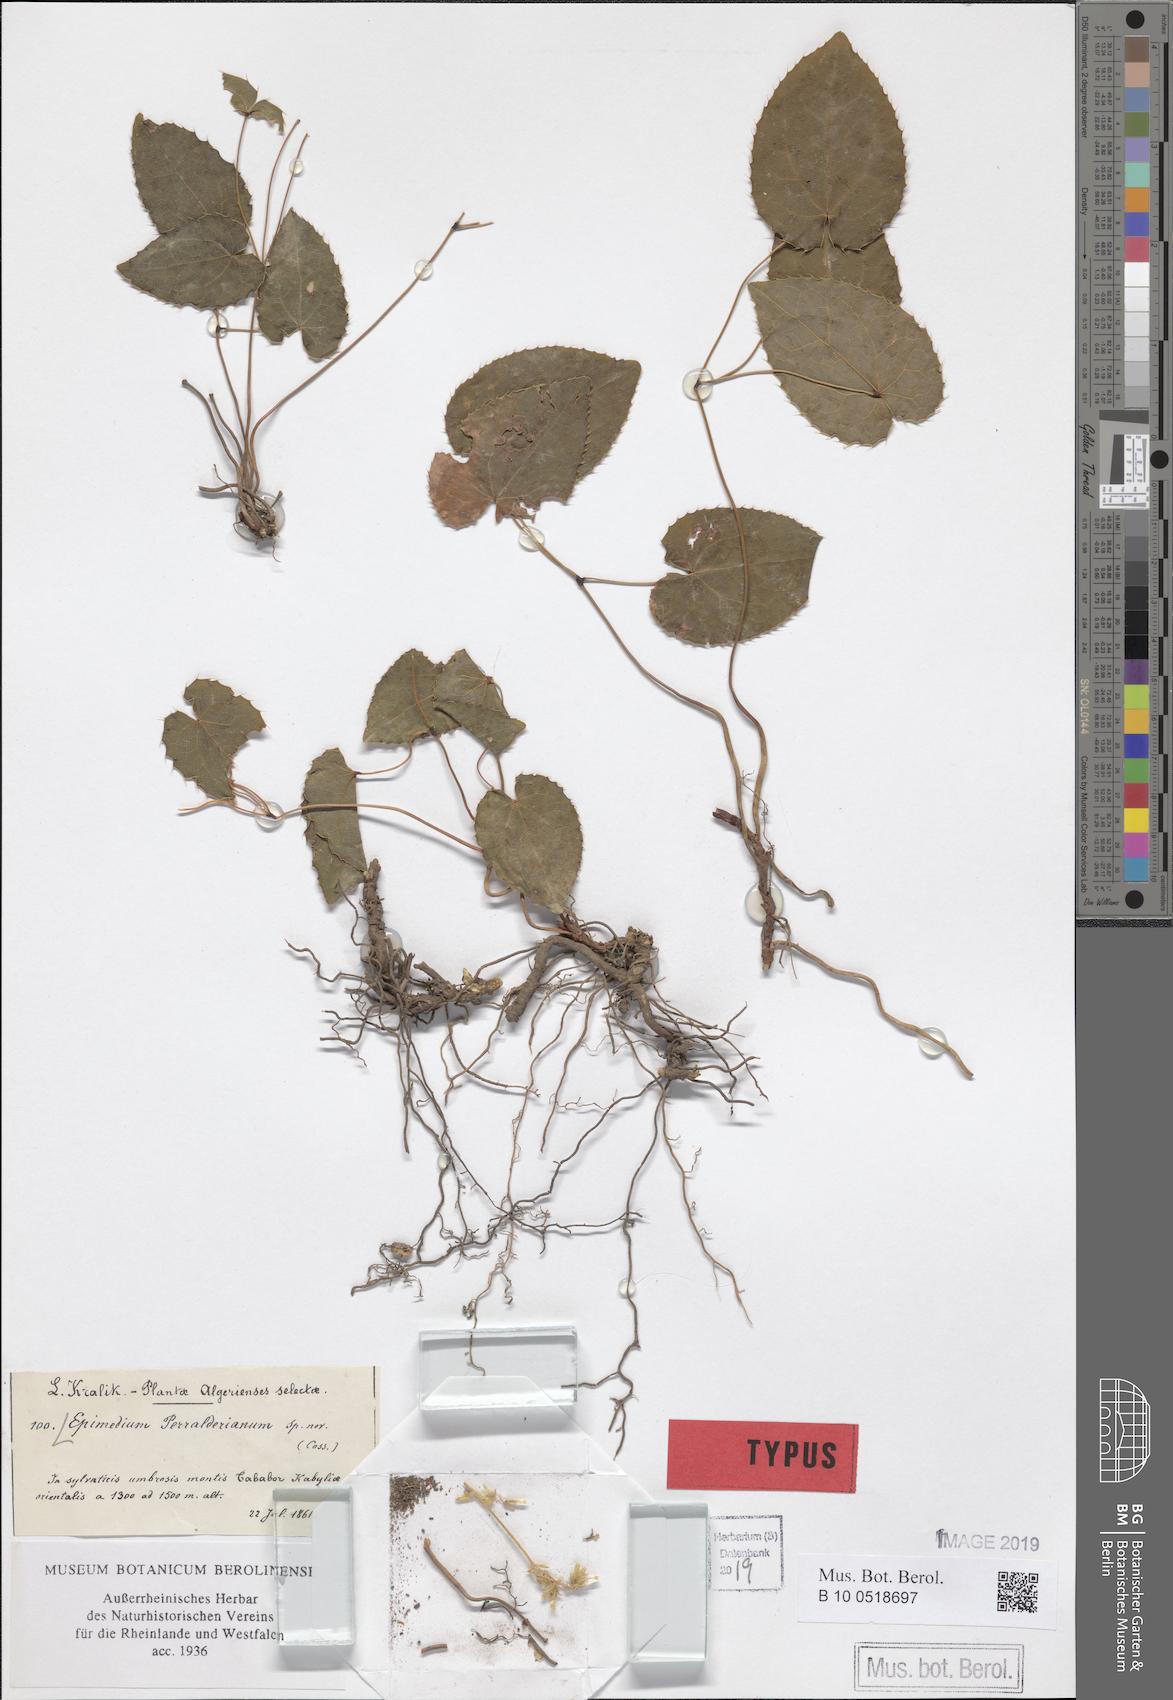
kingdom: Plantae
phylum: Tracheophyta
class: Magnoliopsida
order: Ranunculales
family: Berberidaceae
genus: Epimedium
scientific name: Epimedium perralderianum
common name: Algerian barrenwort
